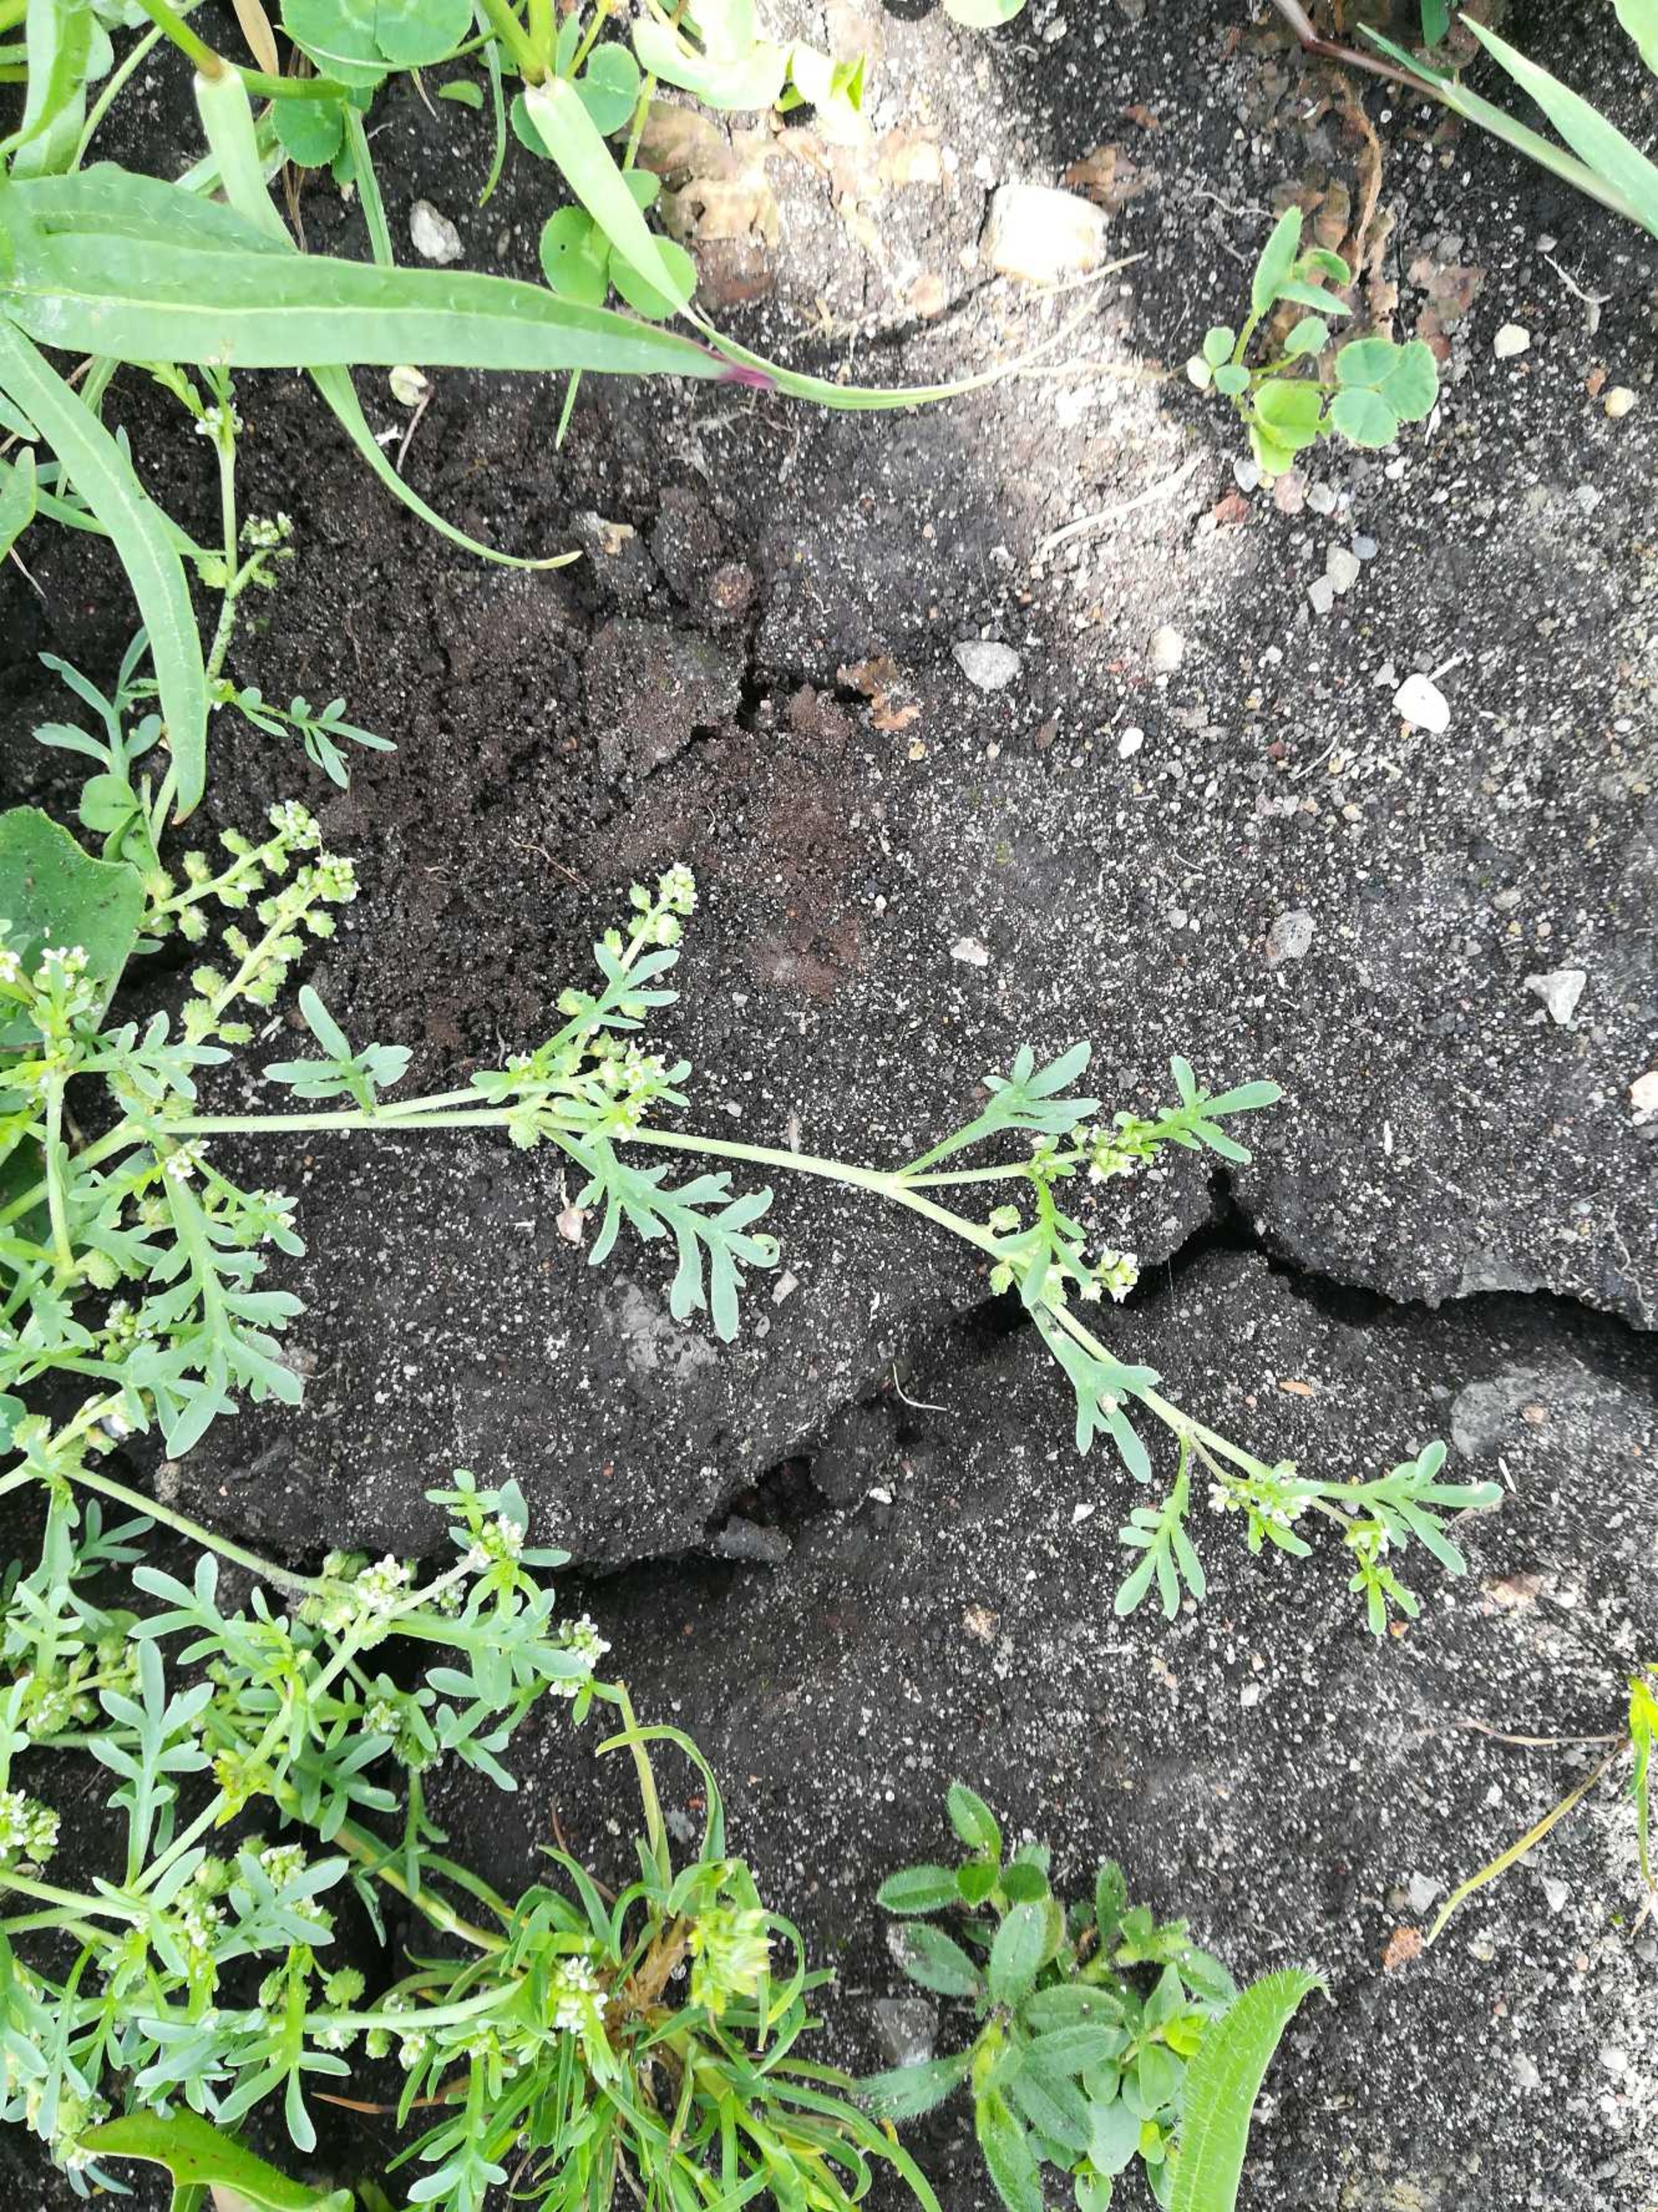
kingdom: Plantae
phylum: Tracheophyta
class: Magnoliopsida
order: Brassicales
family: Brassicaceae
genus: Lepidium
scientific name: Lepidium coronopus
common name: Ravnefod
